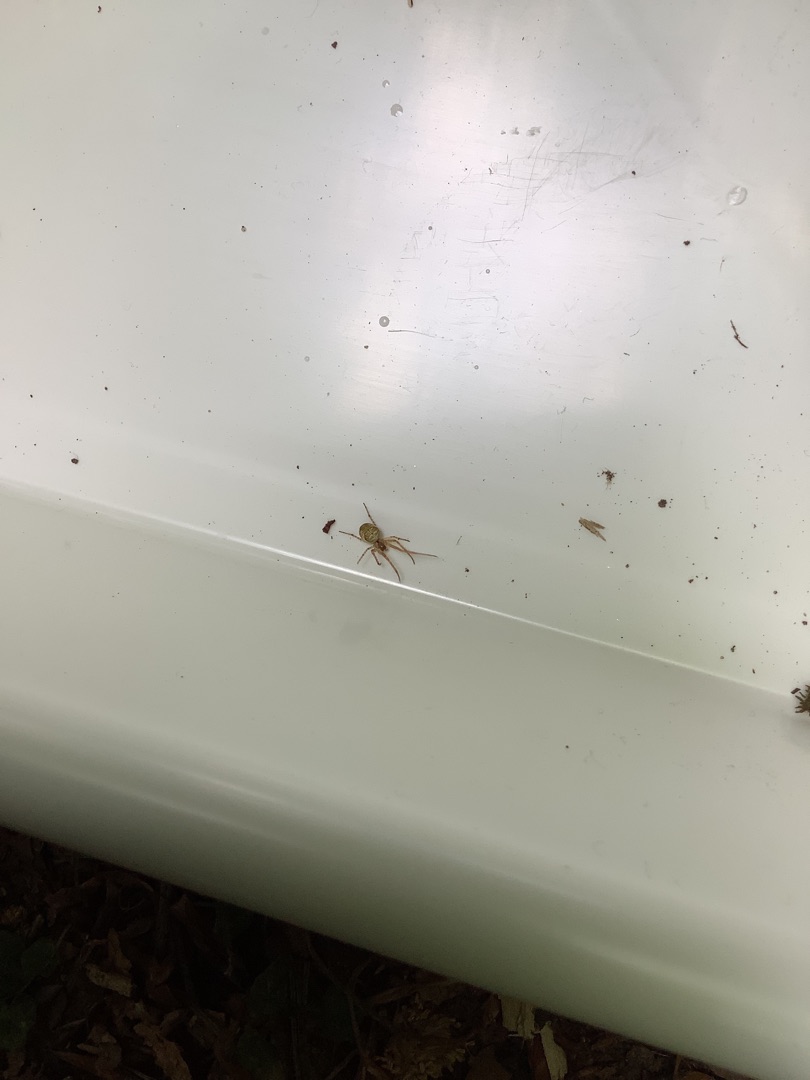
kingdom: Animalia
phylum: Arthropoda
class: Arachnida
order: Araneae
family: Tetragnathidae
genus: Metellina
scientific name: Metellina
